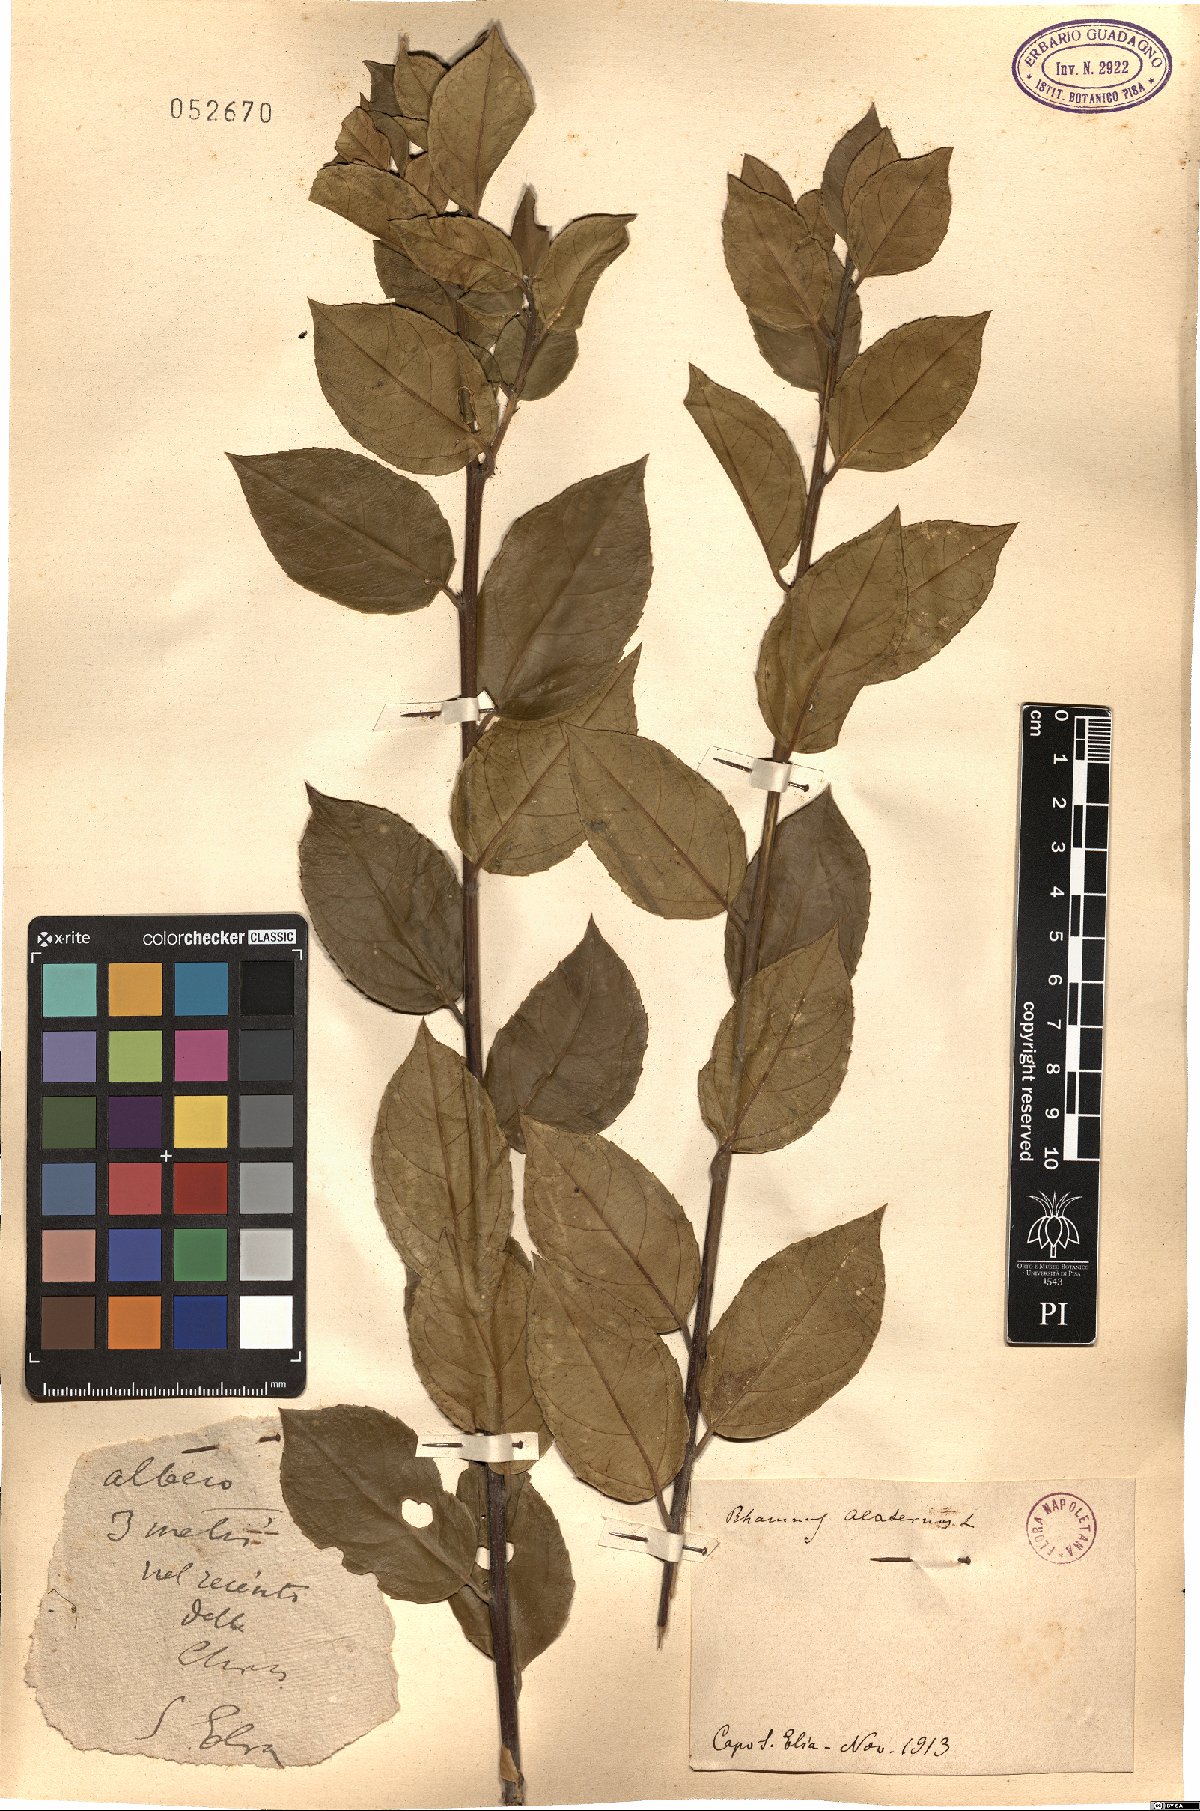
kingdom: Plantae
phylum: Tracheophyta
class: Magnoliopsida
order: Rosales
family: Rhamnaceae
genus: Rhamnus
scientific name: Rhamnus alaternus
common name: Mediterranean buckthorn
